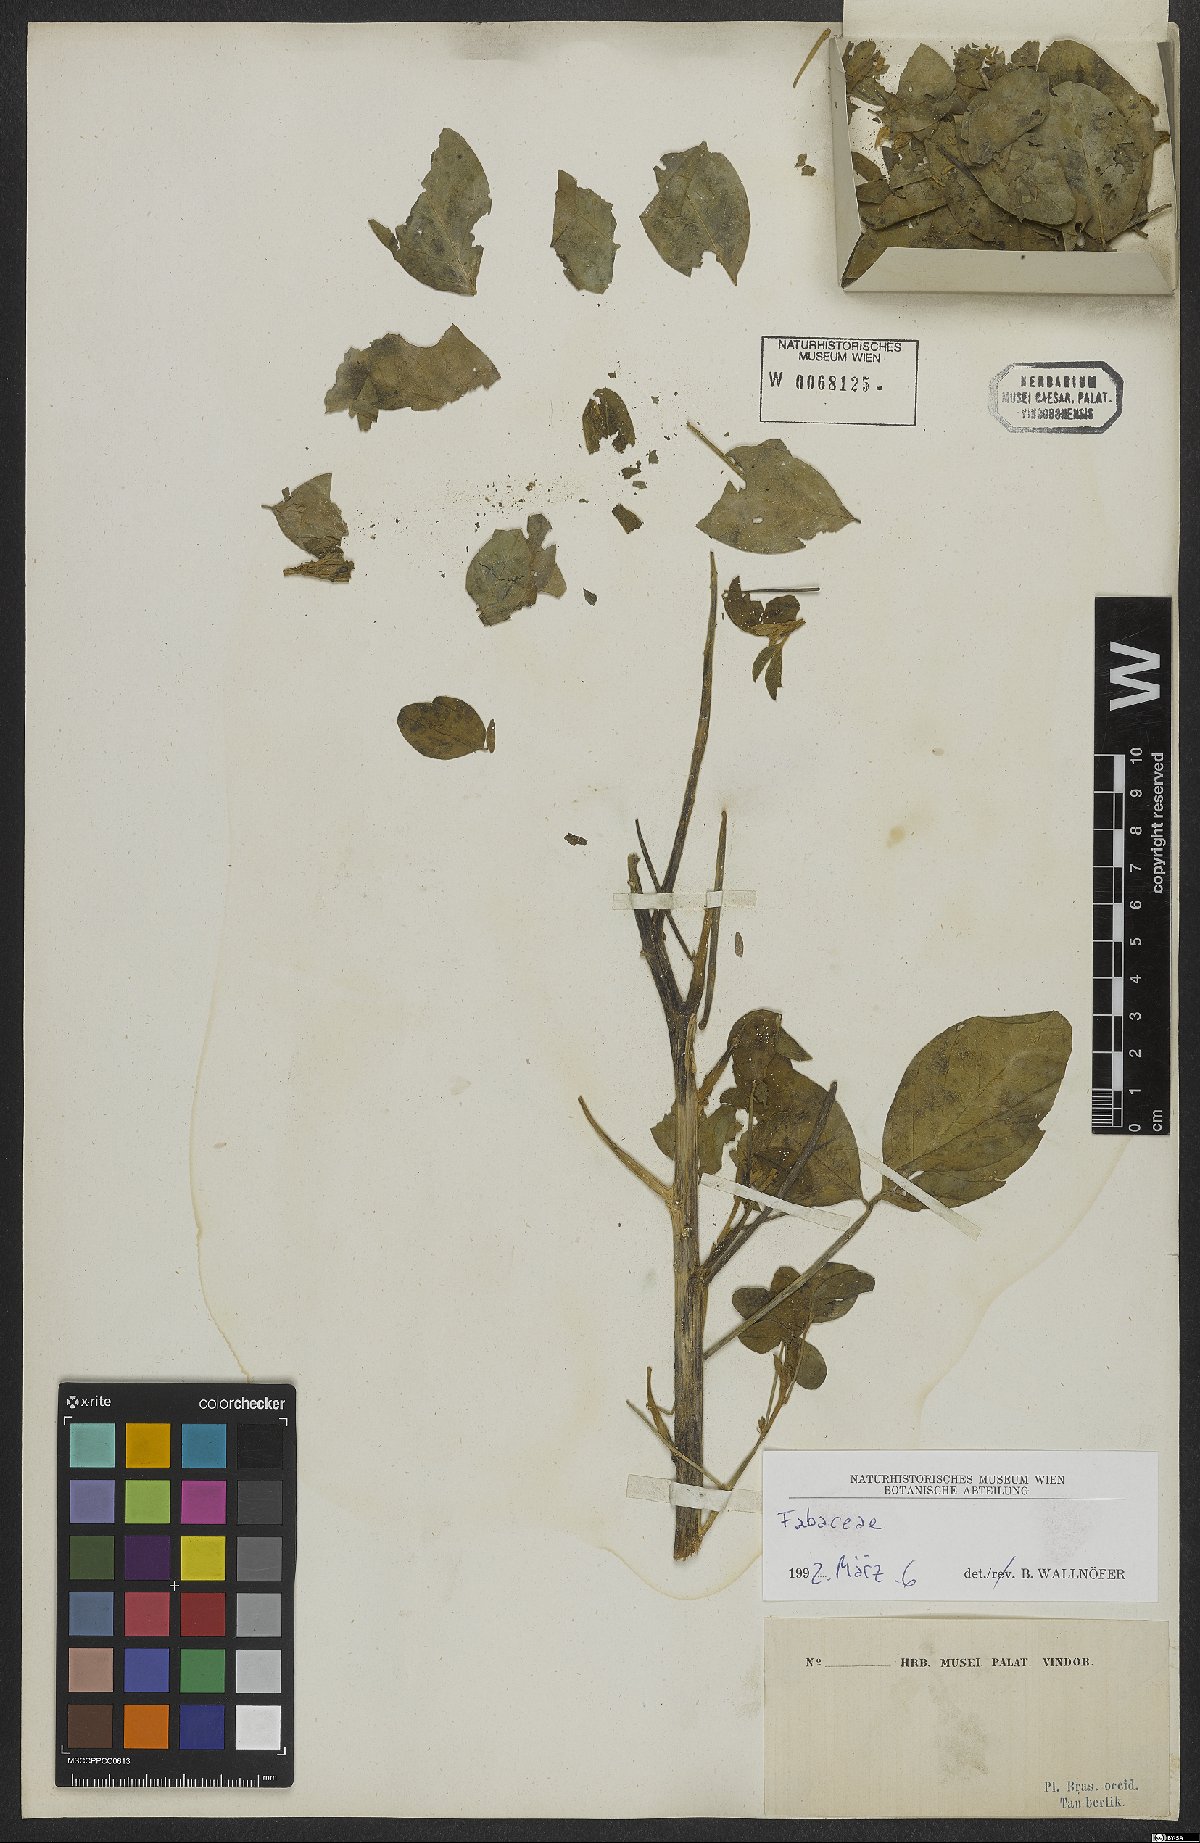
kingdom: Plantae
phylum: Tracheophyta
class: Magnoliopsida
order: Fabales
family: Fabaceae
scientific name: Fabaceae
